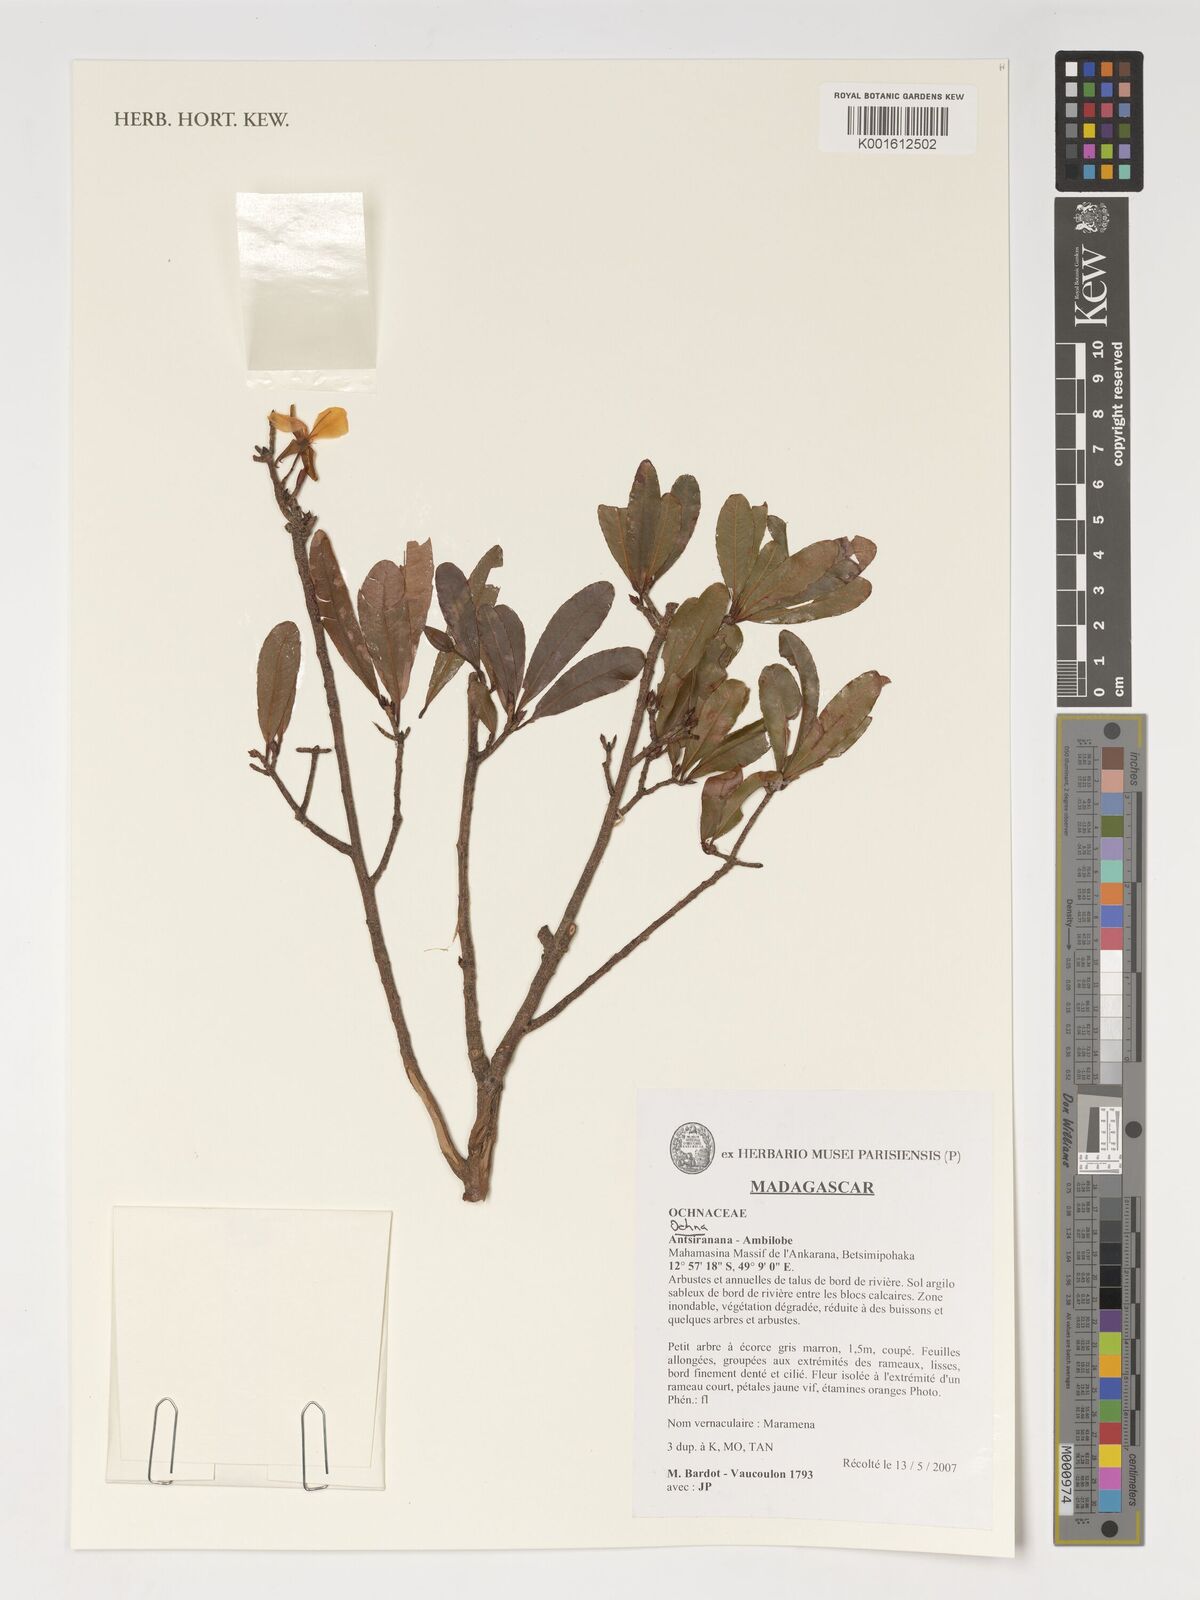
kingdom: Plantae
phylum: Tracheophyta
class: Magnoliopsida
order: Malpighiales
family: Ochnaceae
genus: Ochna
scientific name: Ochna
